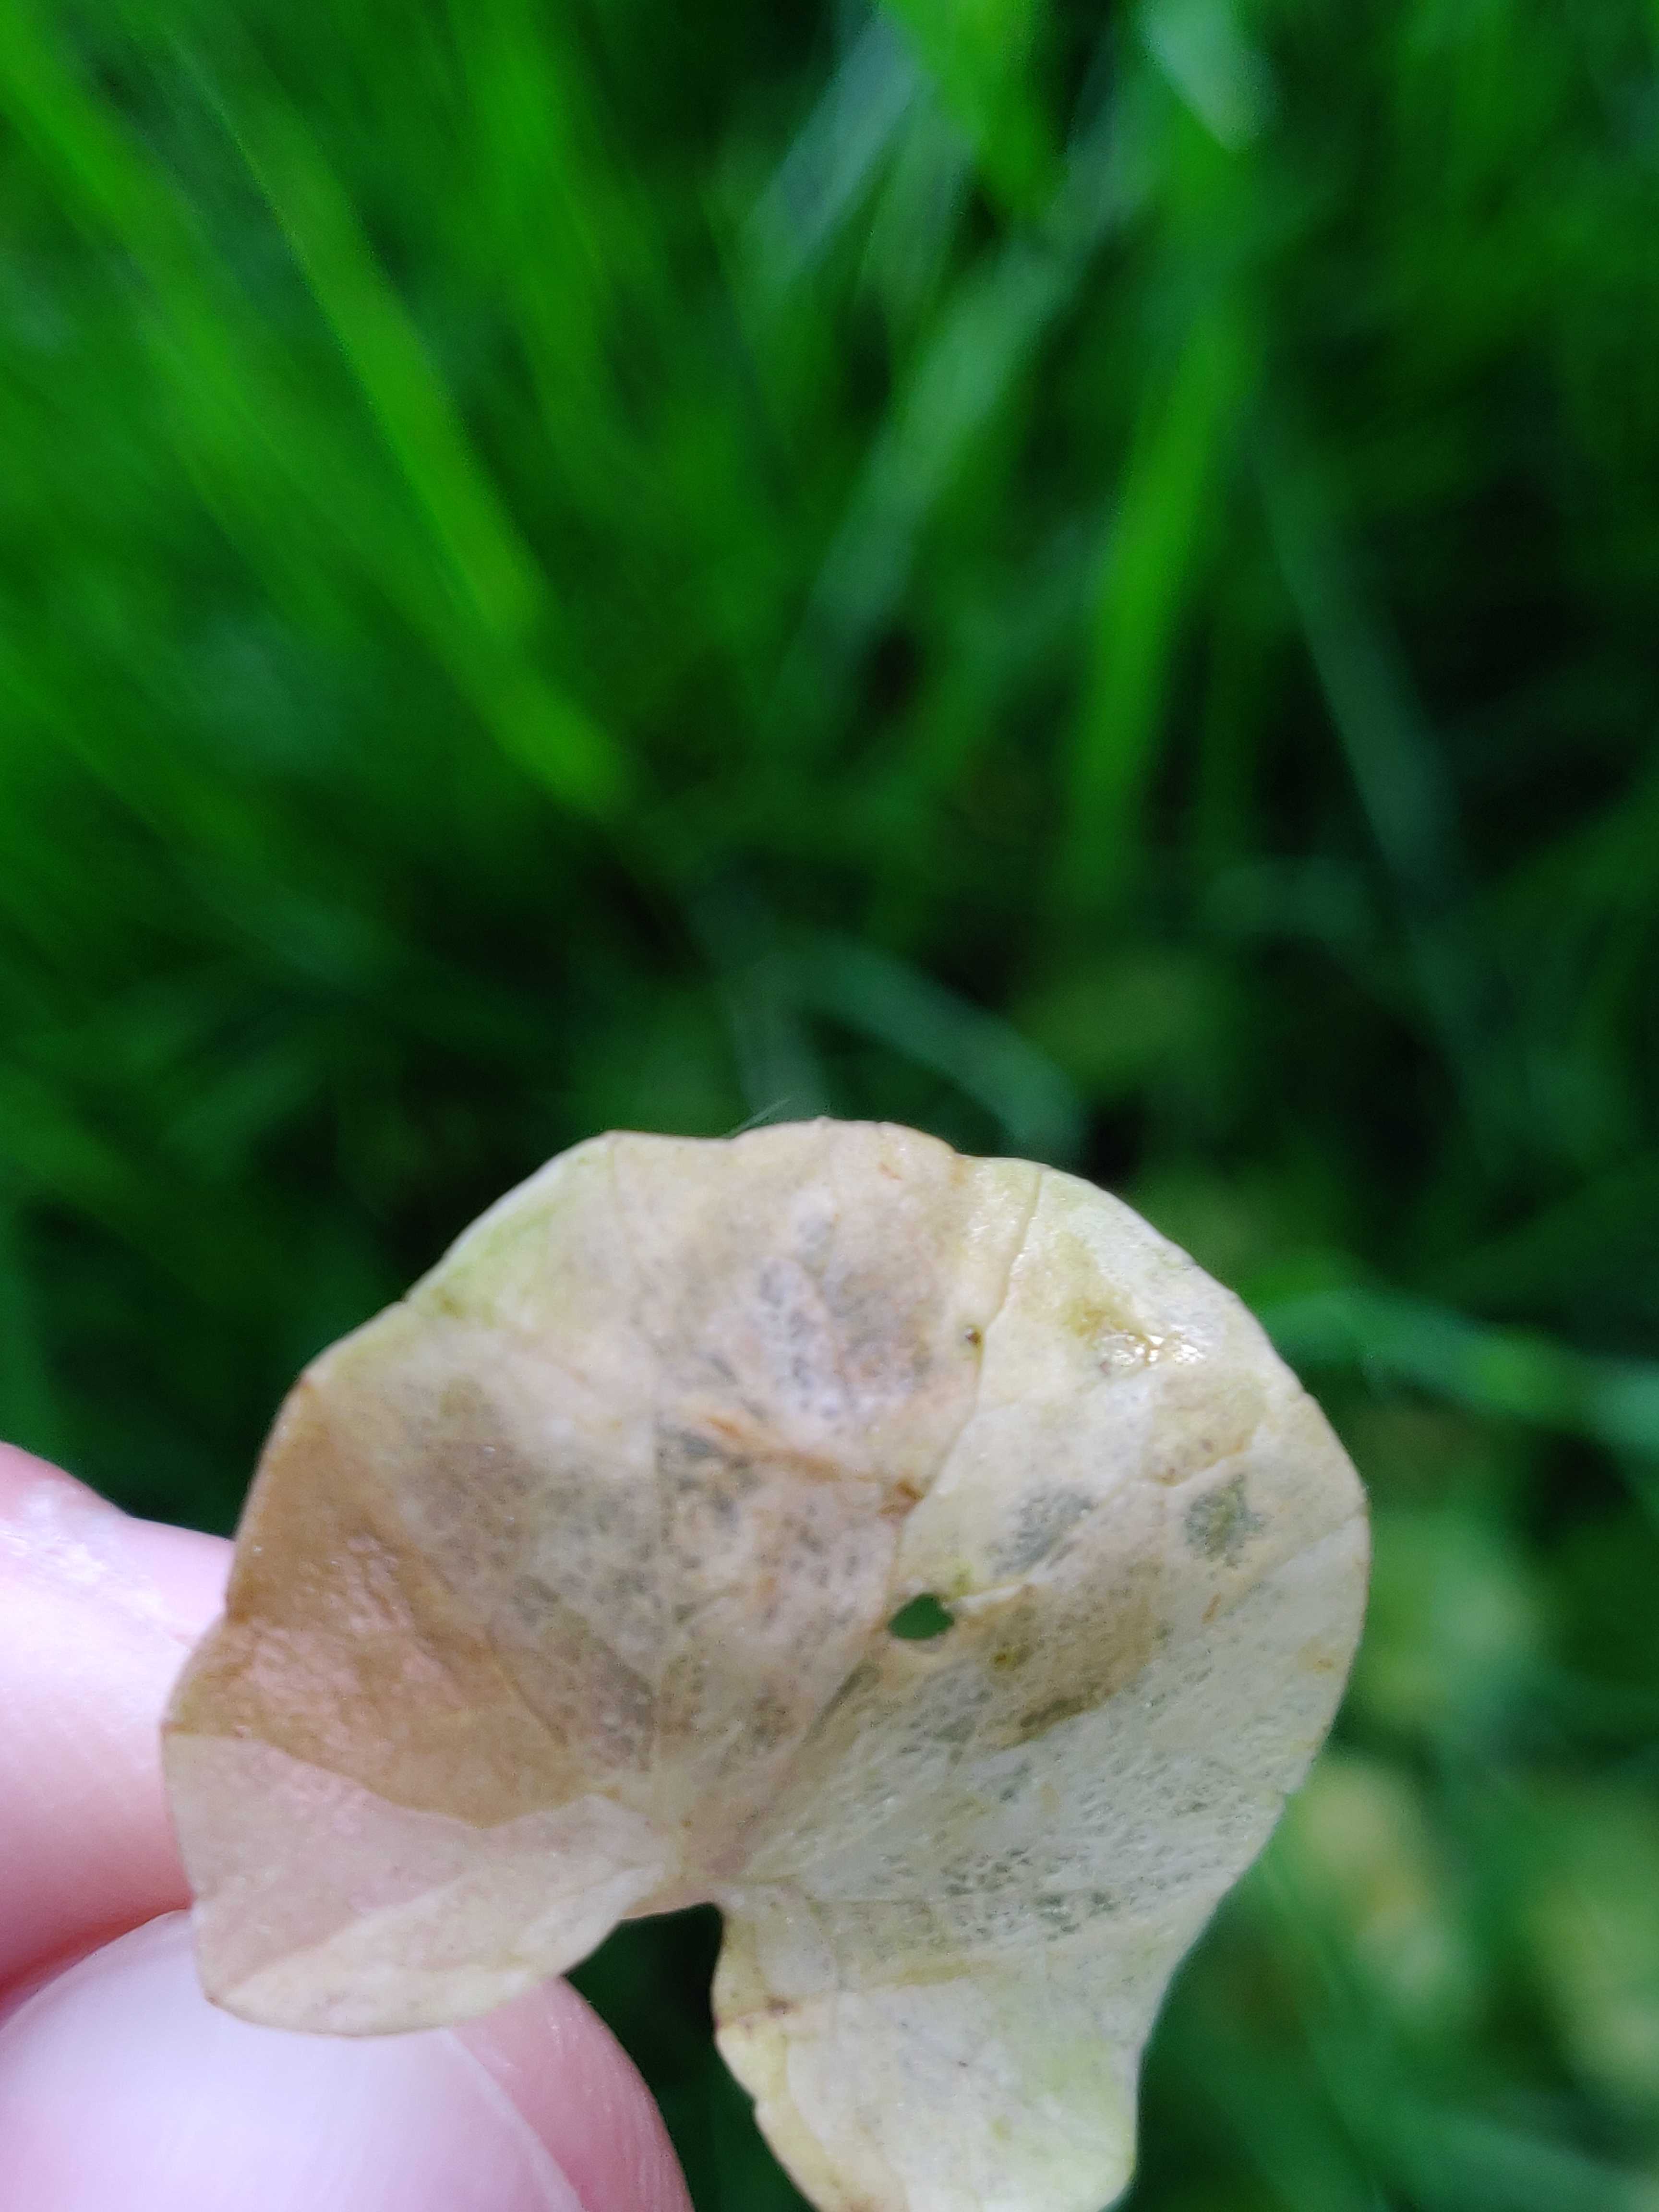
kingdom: Chromista
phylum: Oomycota
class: Peronosporea
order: Peronosporales
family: Peronosporaceae
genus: Peronospora
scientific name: Peronospora ficariae
